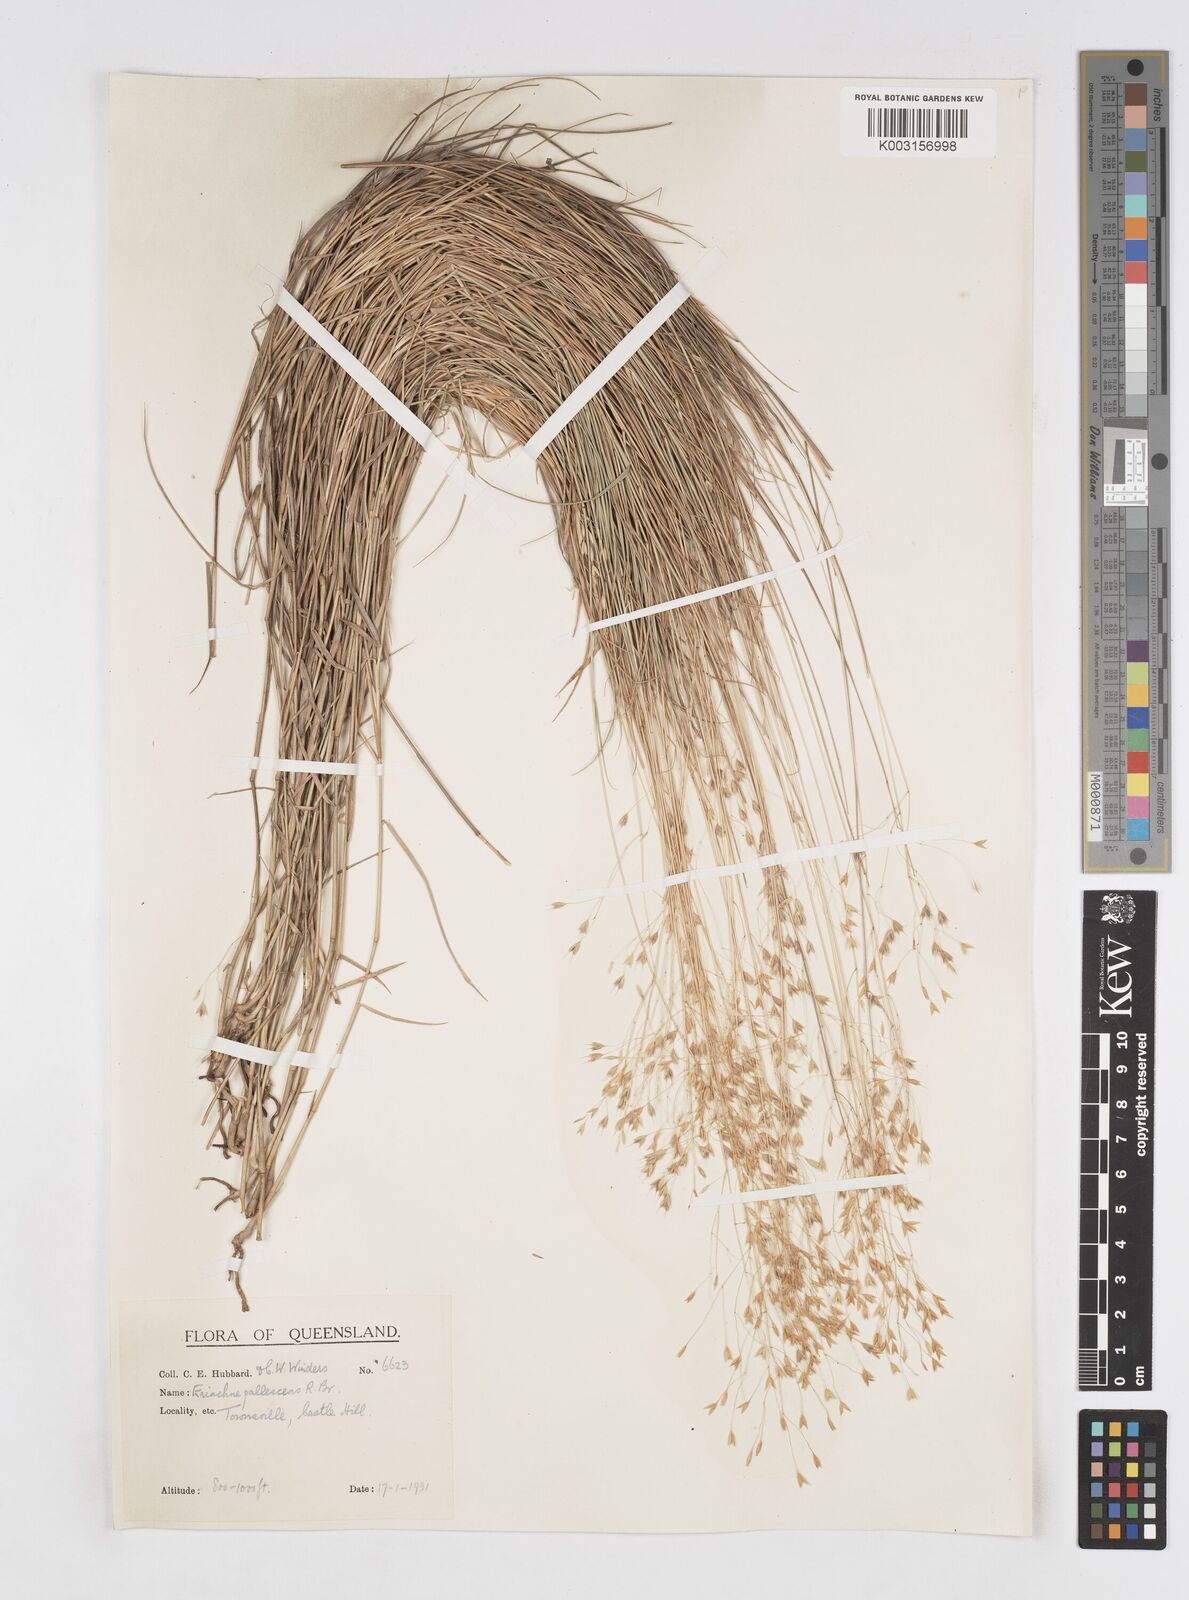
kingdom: Plantae
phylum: Tracheophyta
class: Liliopsida
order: Poales
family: Poaceae
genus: Eriachne
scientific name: Eriachne pallescens
